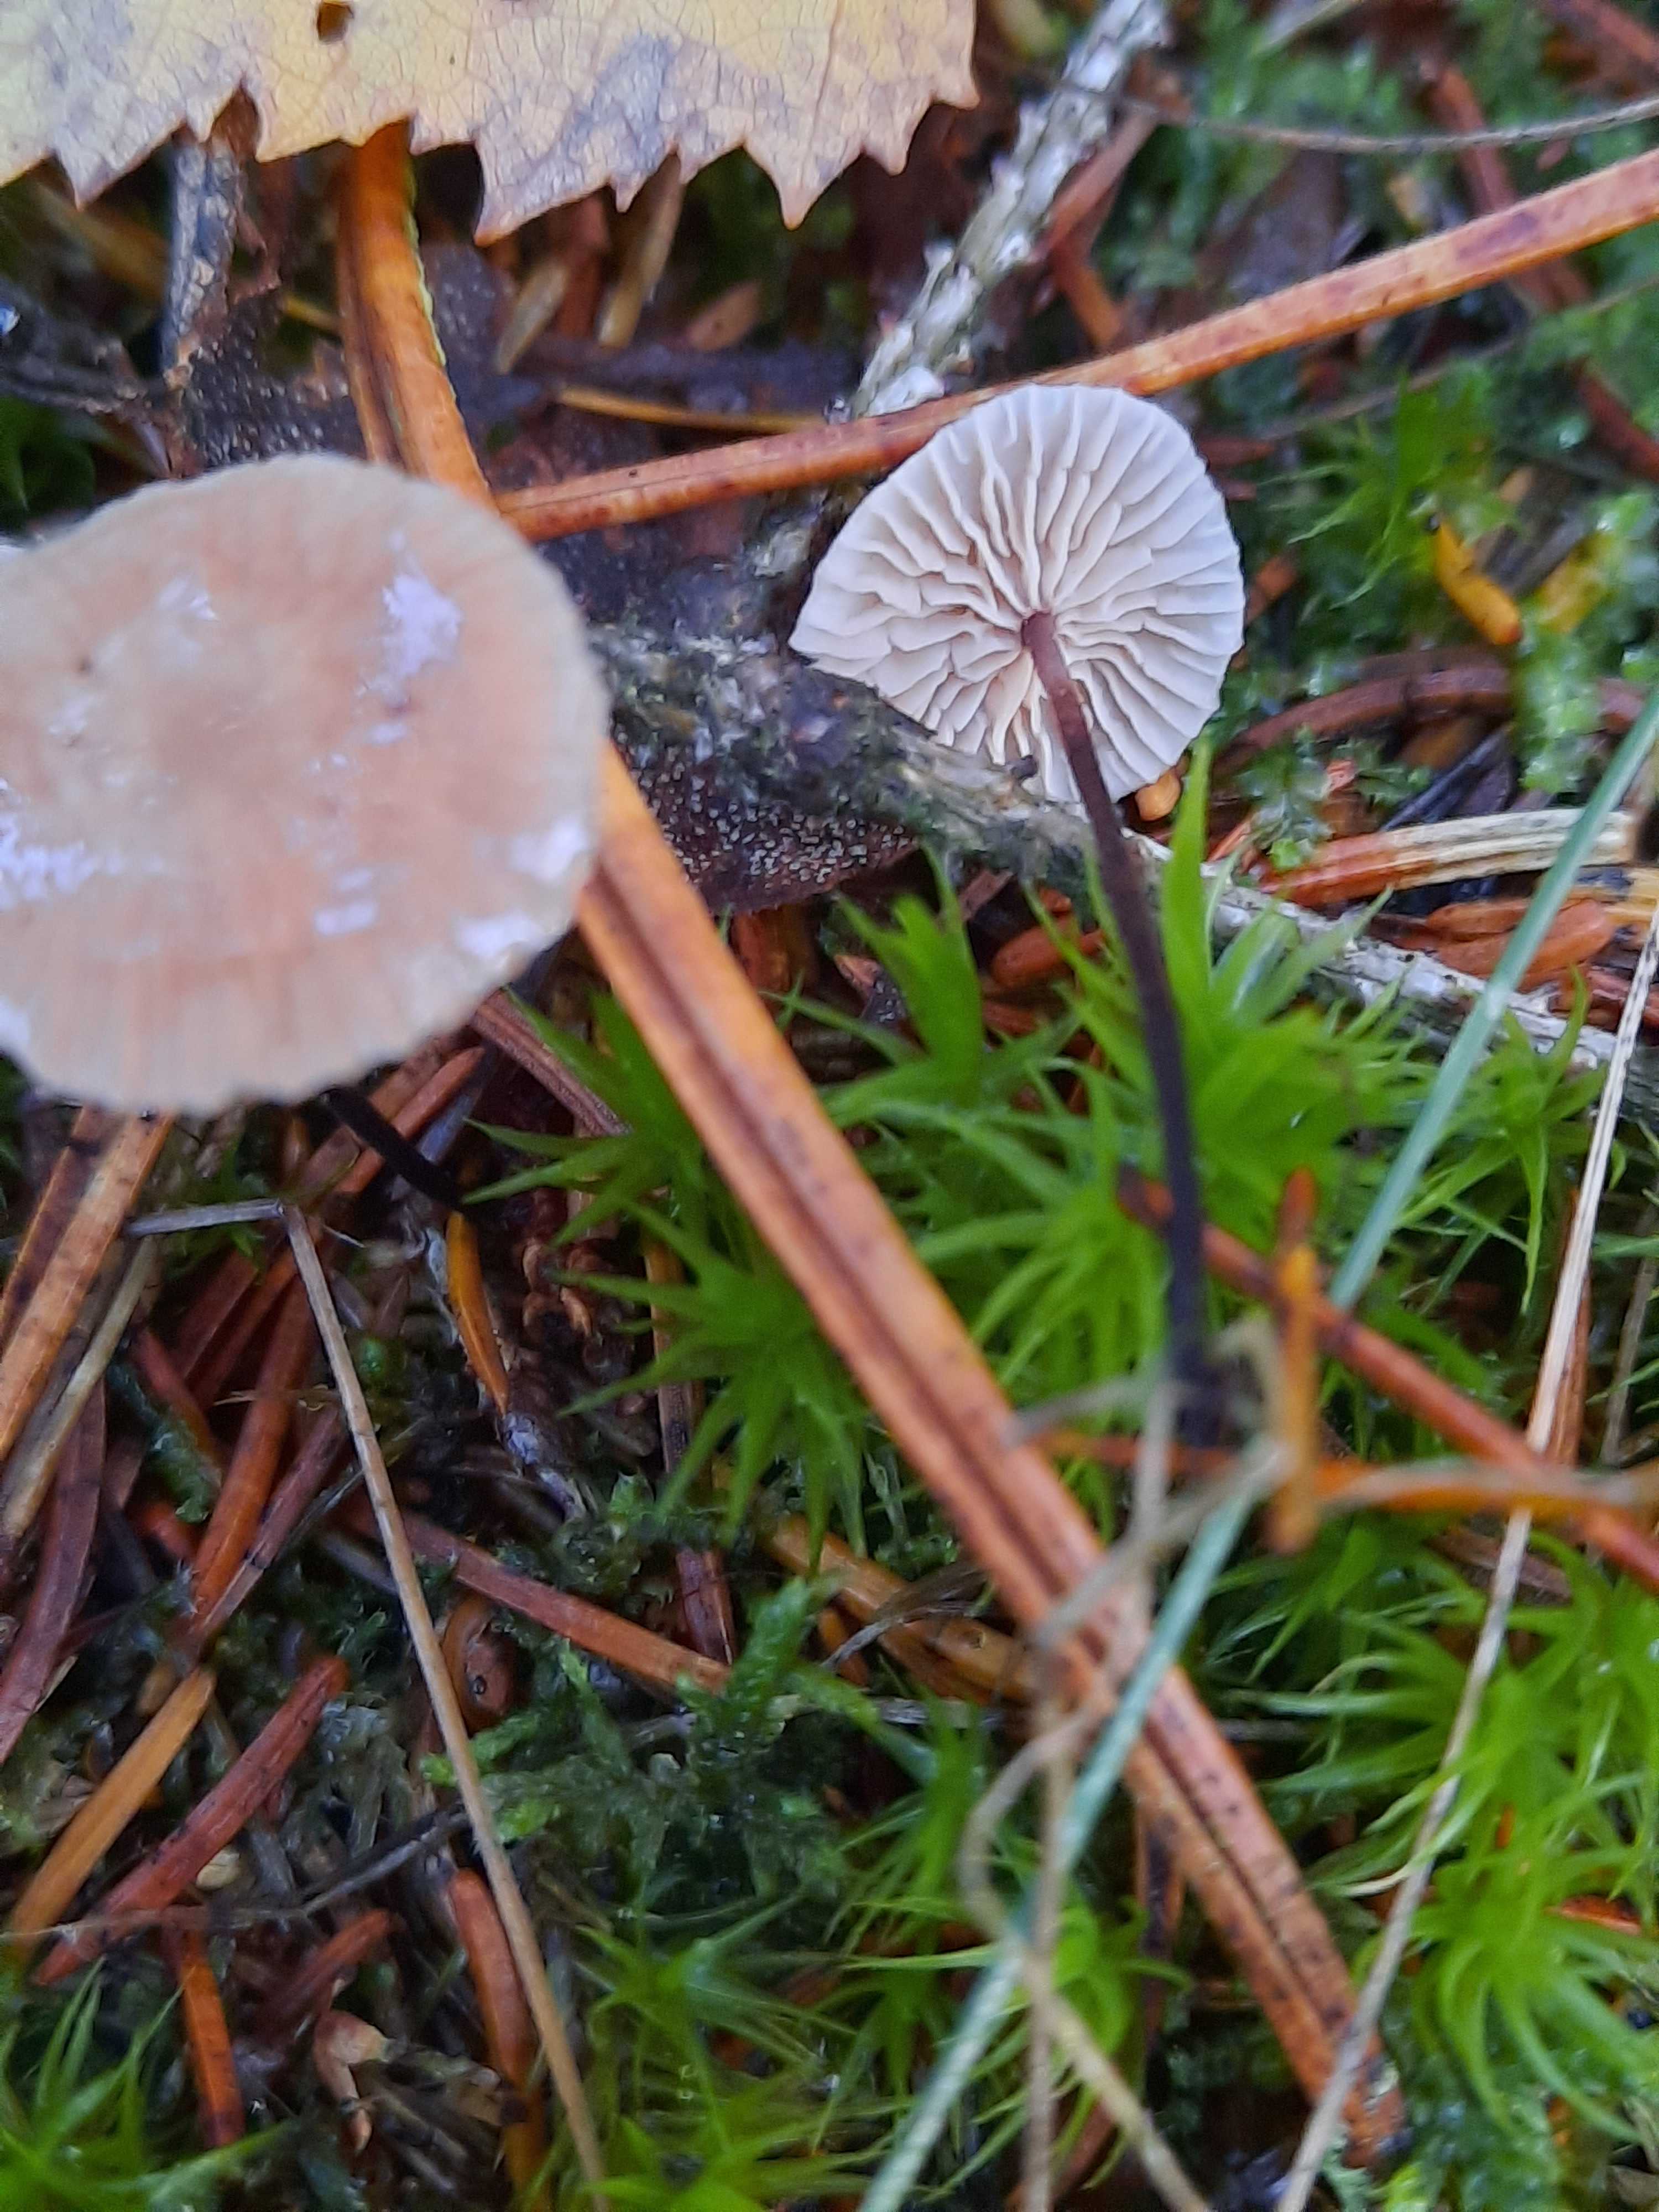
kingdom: Fungi
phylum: Basidiomycota
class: Agaricomycetes
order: Agaricales
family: Omphalotaceae
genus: Paragymnopus
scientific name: Paragymnopus perforans
